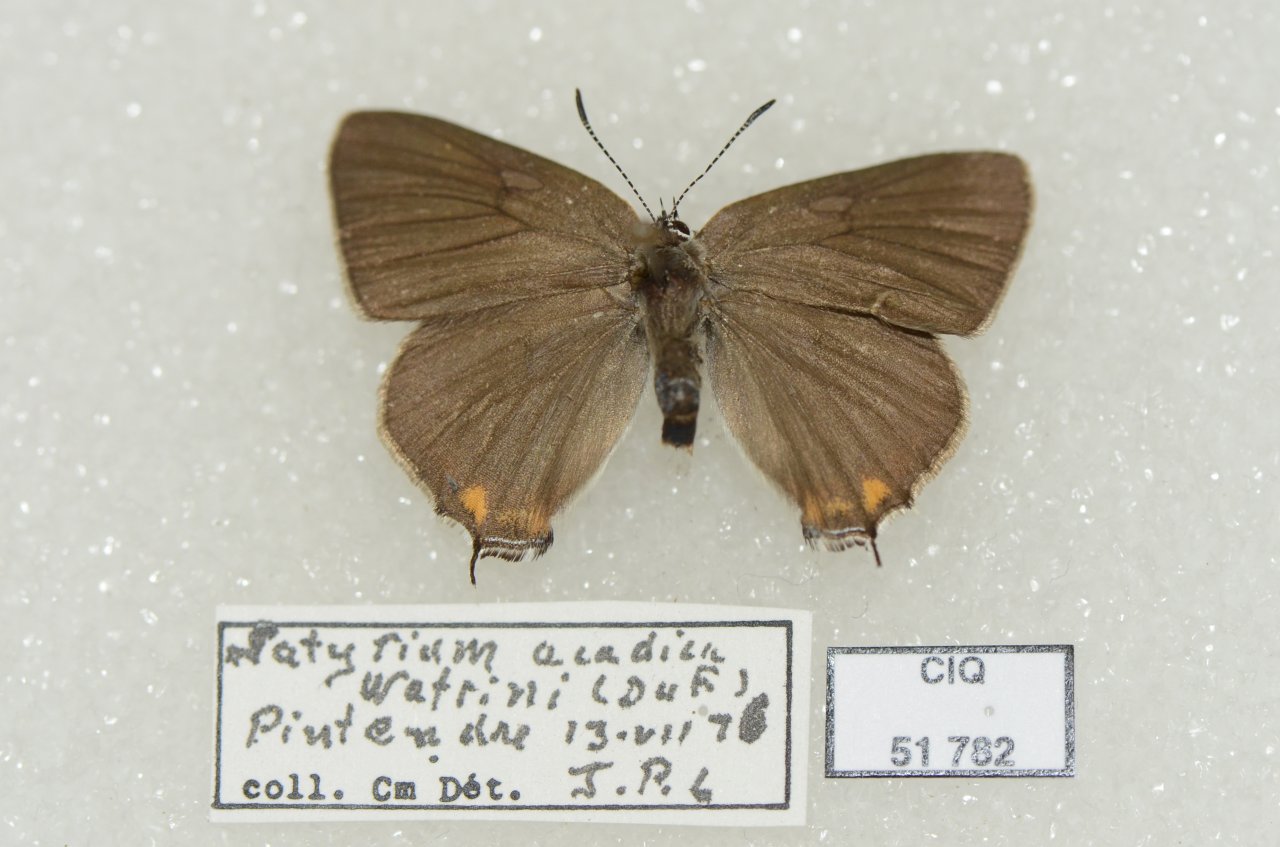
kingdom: Animalia
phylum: Arthropoda
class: Insecta
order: Lepidoptera
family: Lycaenidae
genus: Strymon
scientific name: Strymon acadica
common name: Acadian Hairstreak
